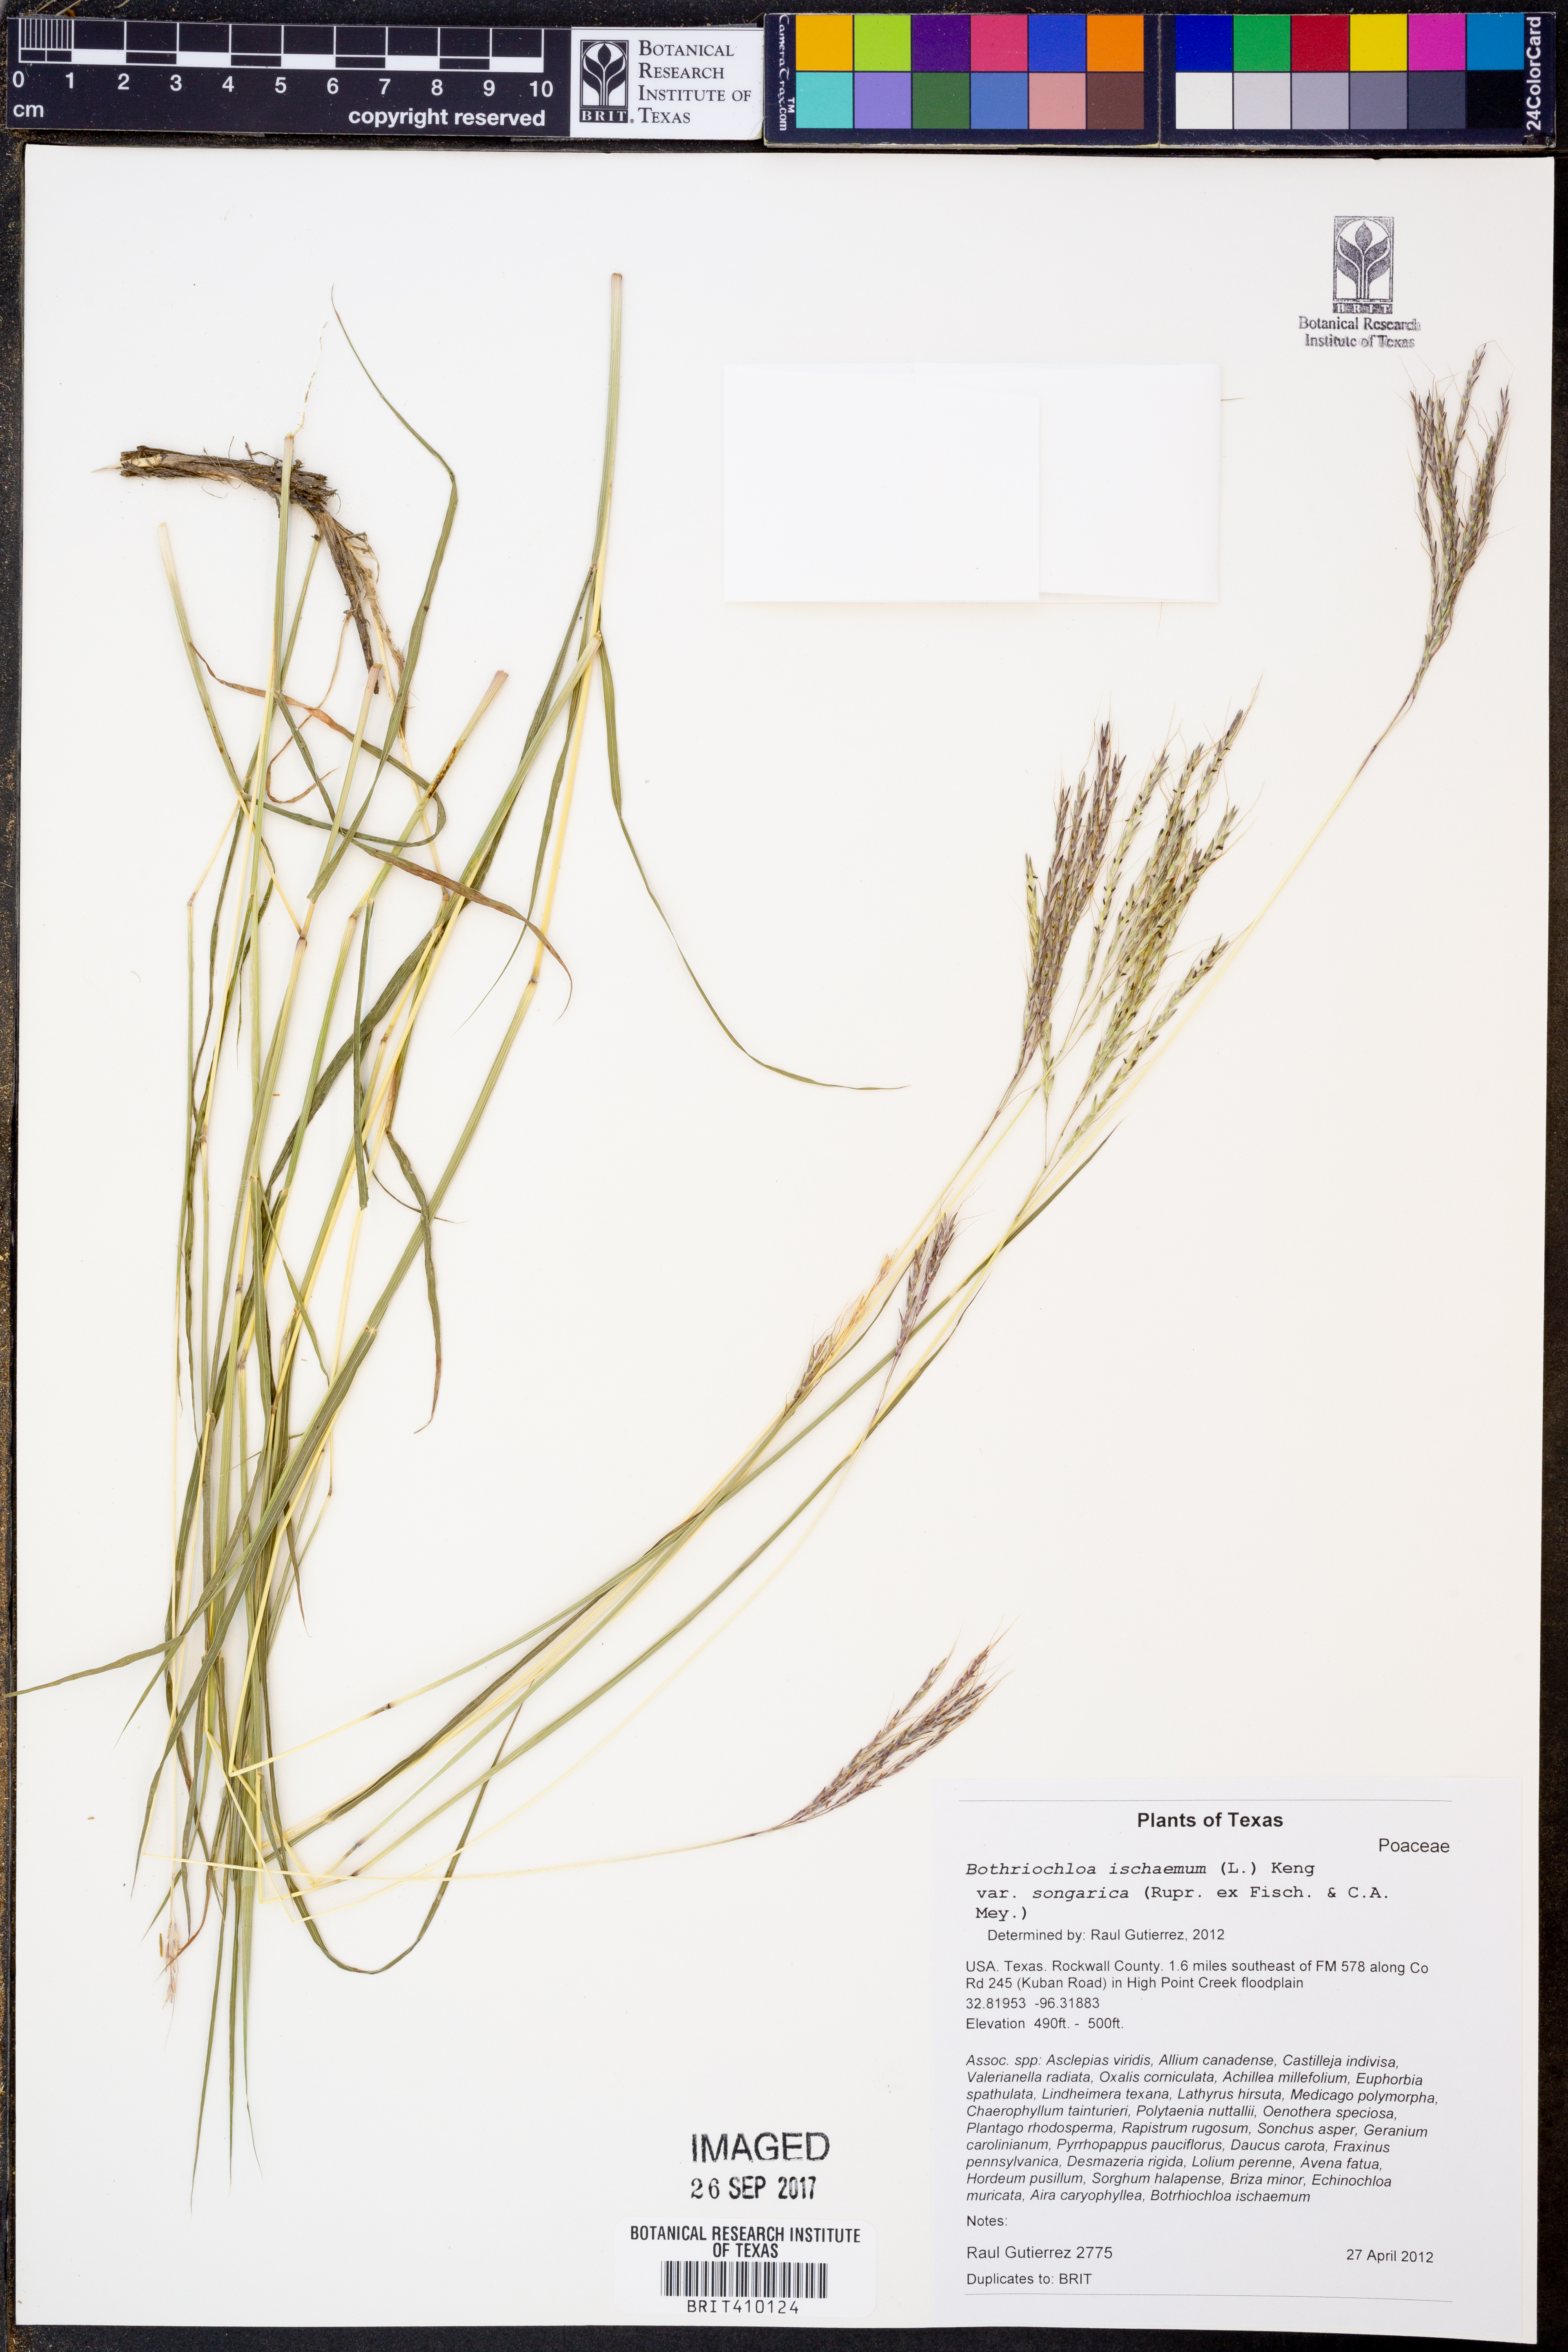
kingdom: Plantae
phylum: Tracheophyta
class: Liliopsida
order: Poales
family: Poaceae
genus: Bothriochloa
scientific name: Bothriochloa ischaemum
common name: Yellow bluestem
